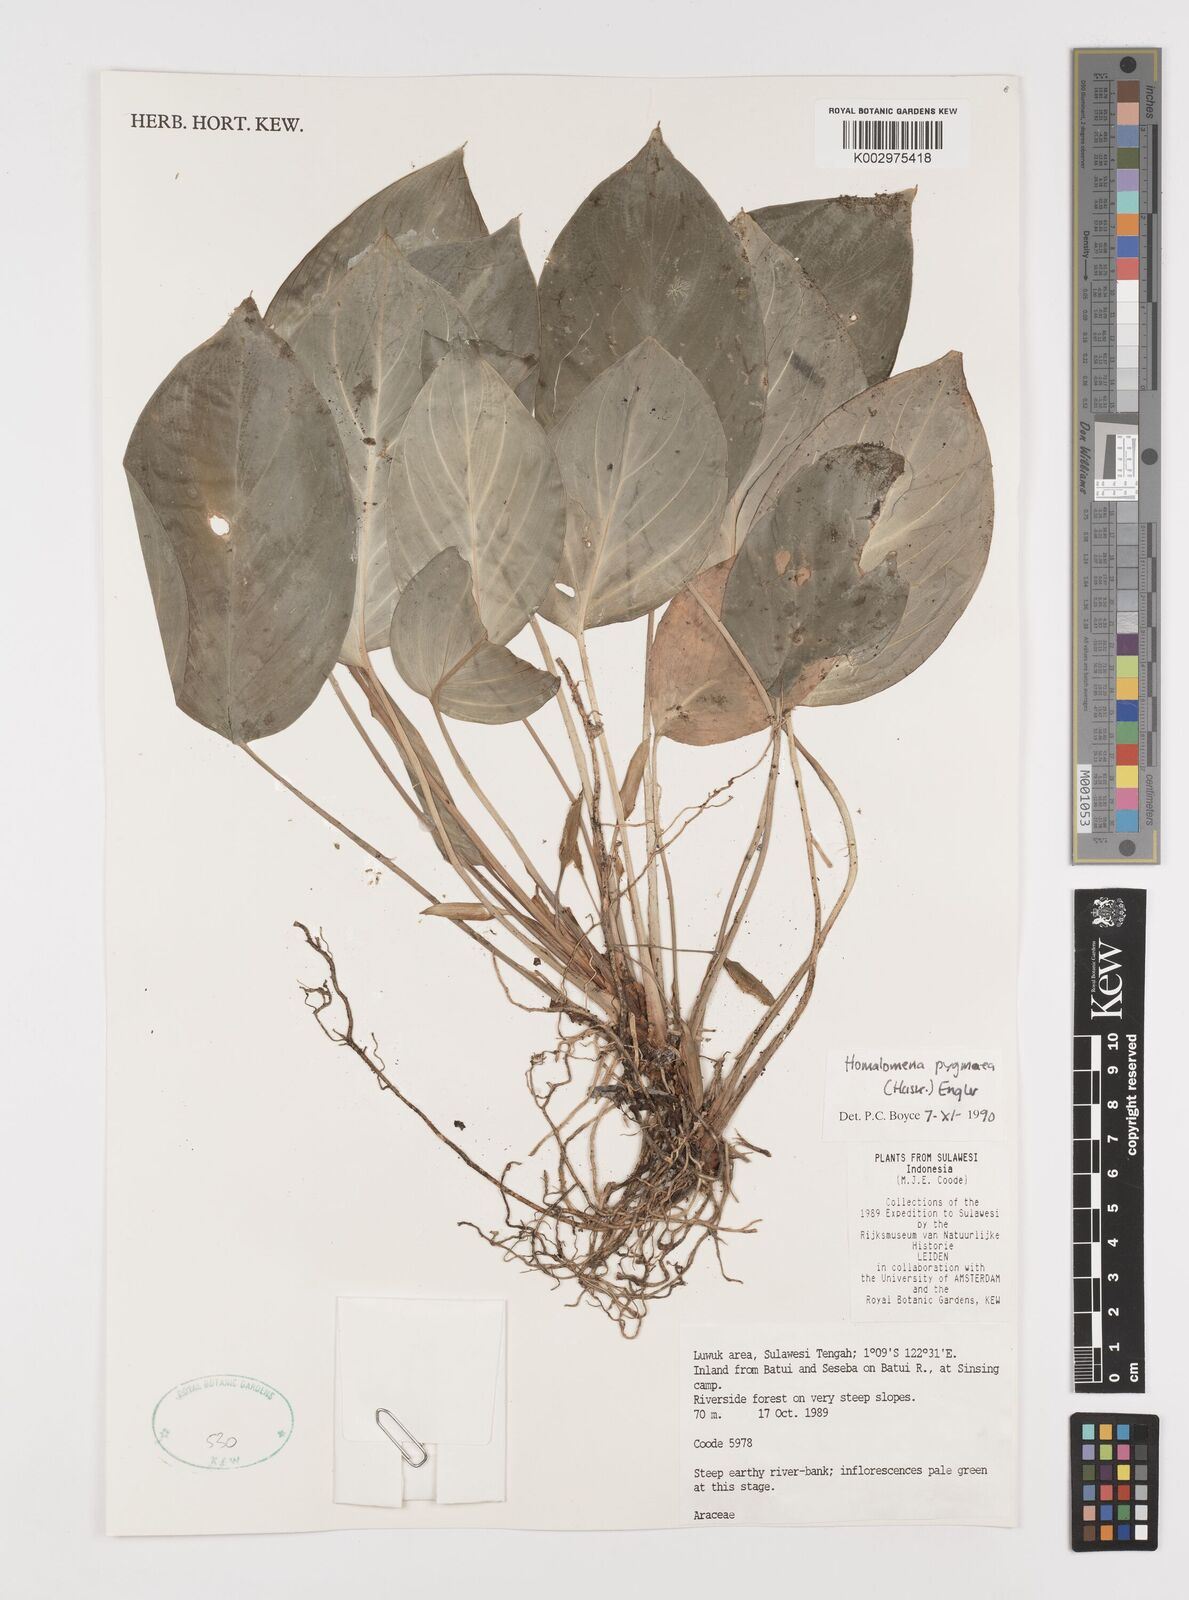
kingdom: Plantae
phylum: Tracheophyta
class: Liliopsida
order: Alismatales
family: Araceae
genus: Homalomena
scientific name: Homalomena humilis
